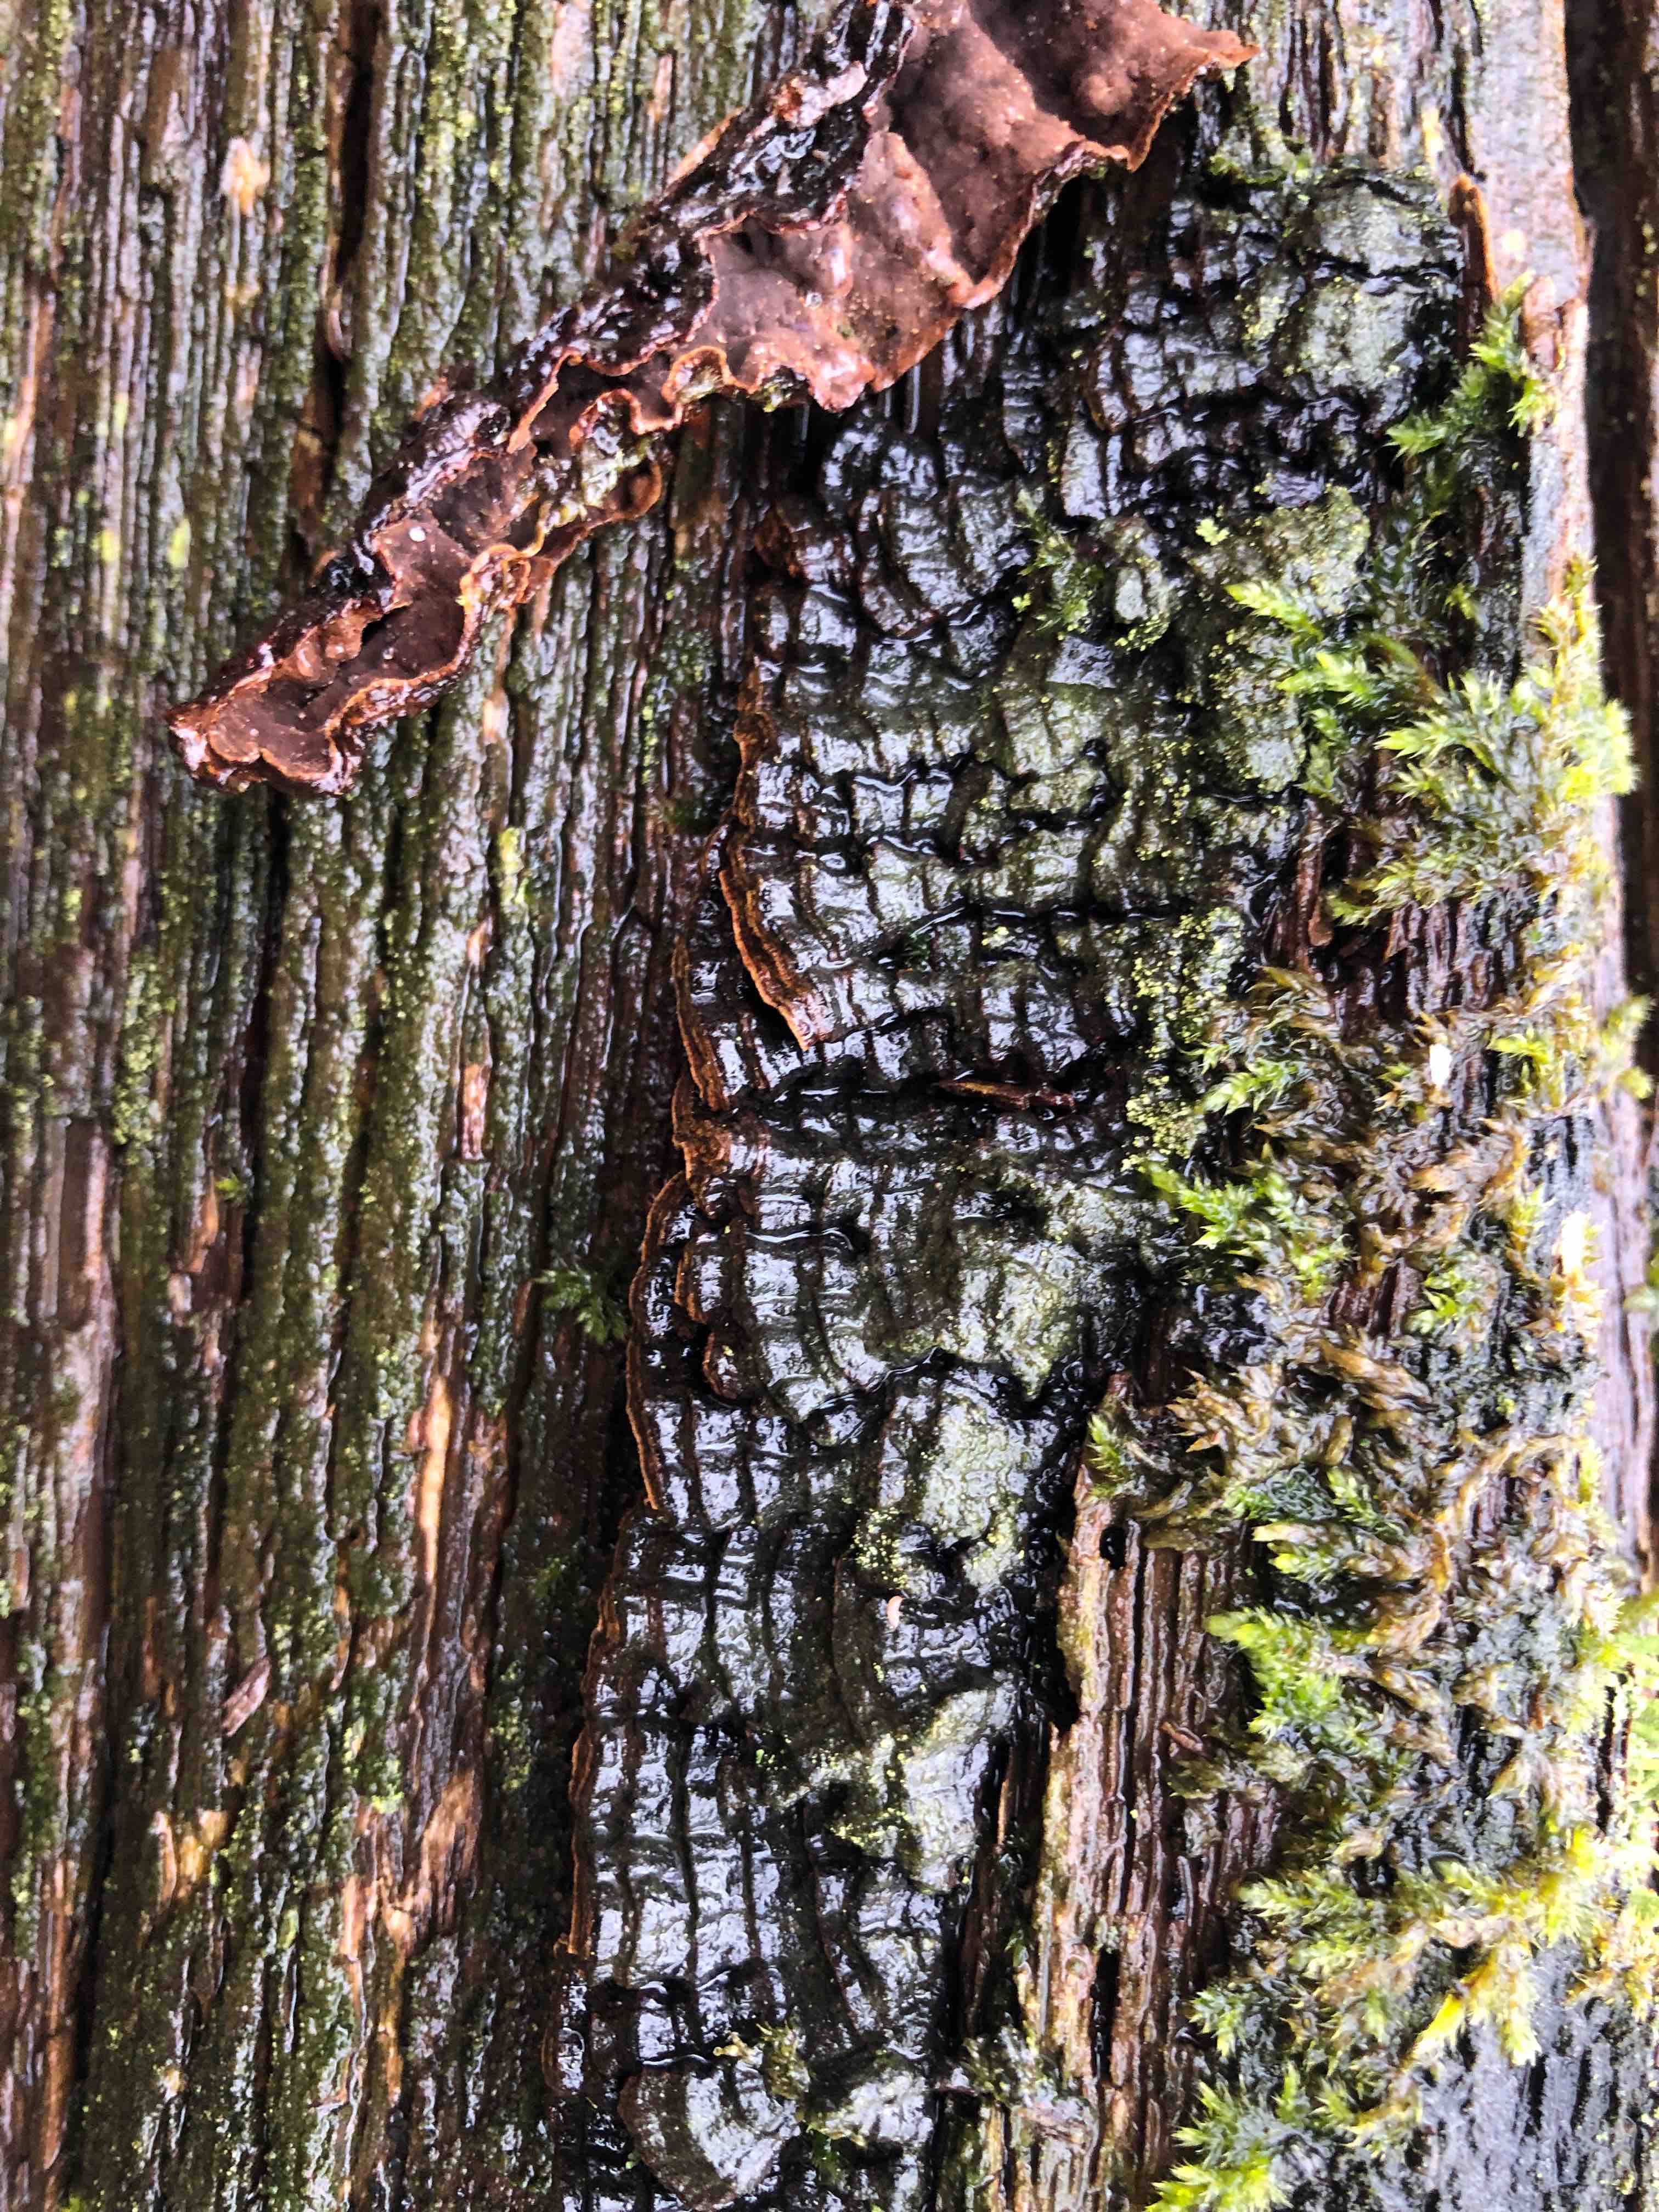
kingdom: Fungi
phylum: Basidiomycota
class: Agaricomycetes
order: Hymenochaetales
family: Hymenochaetaceae
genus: Hymenochaete
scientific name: Hymenochaete rubiginosa
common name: stiv ruslædersvamp
